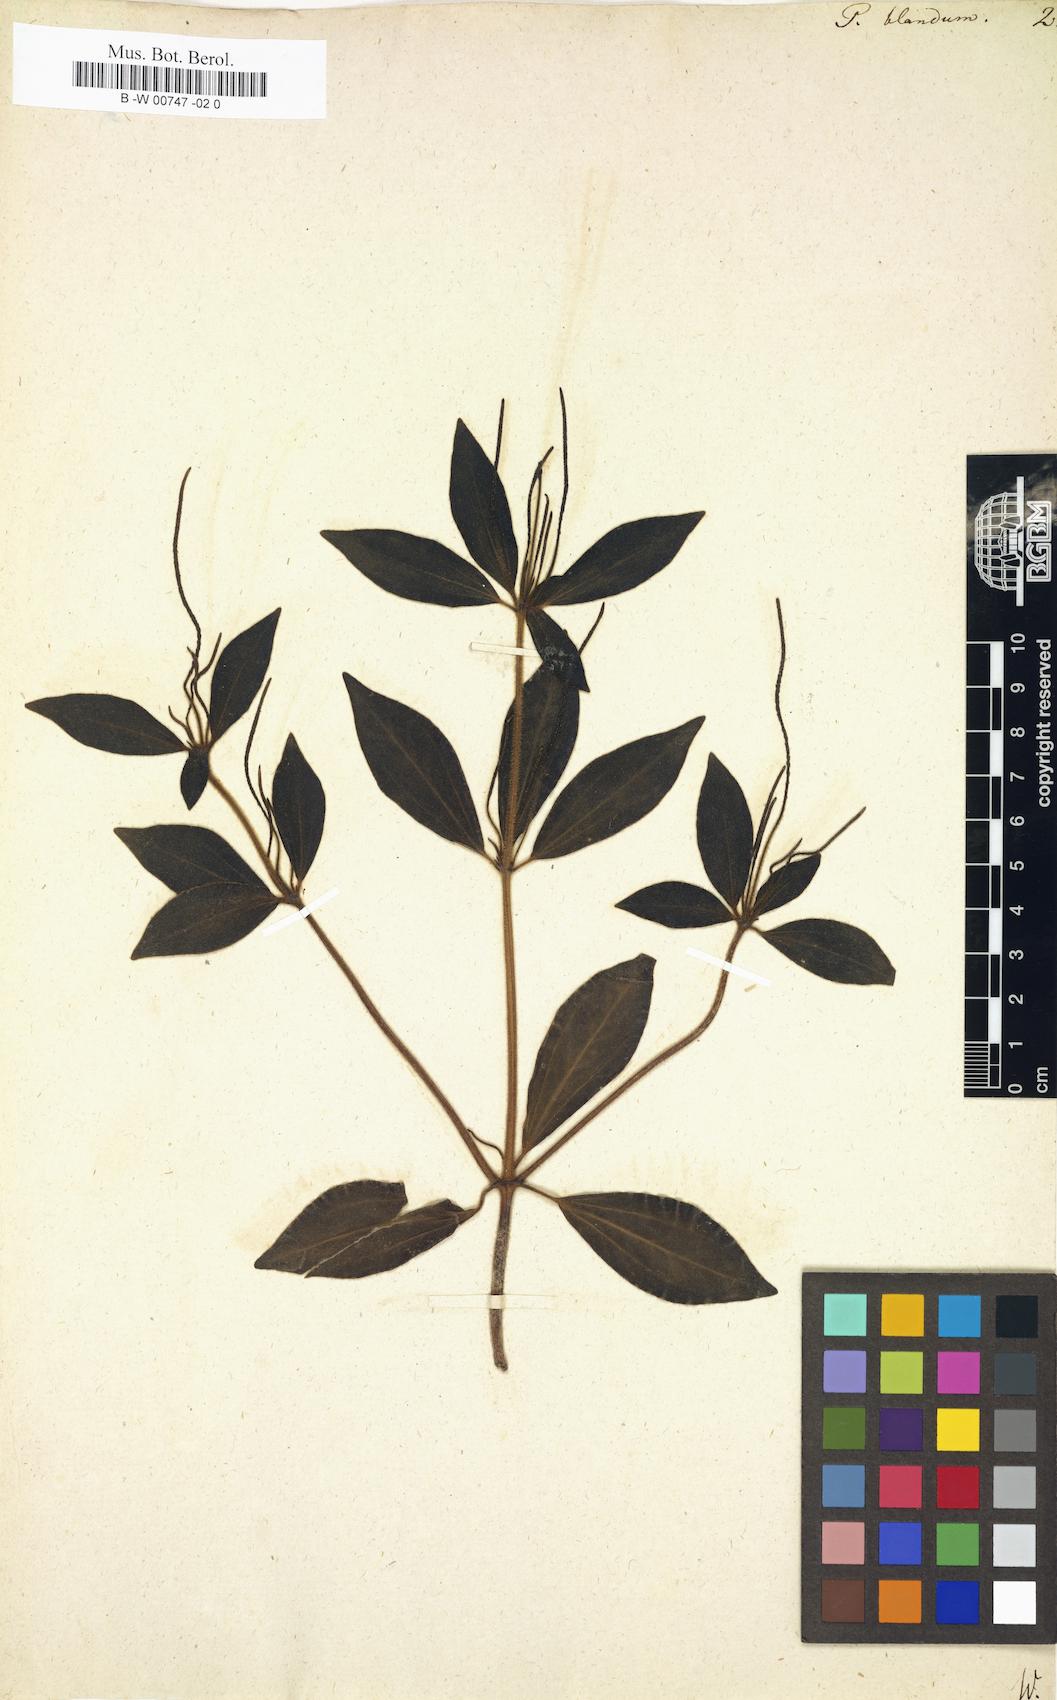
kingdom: Plantae
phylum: Tracheophyta
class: Magnoliopsida
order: Piperales
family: Piperaceae
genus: Peperomia
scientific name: Peperomia blanda
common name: Arid-land peperomia
